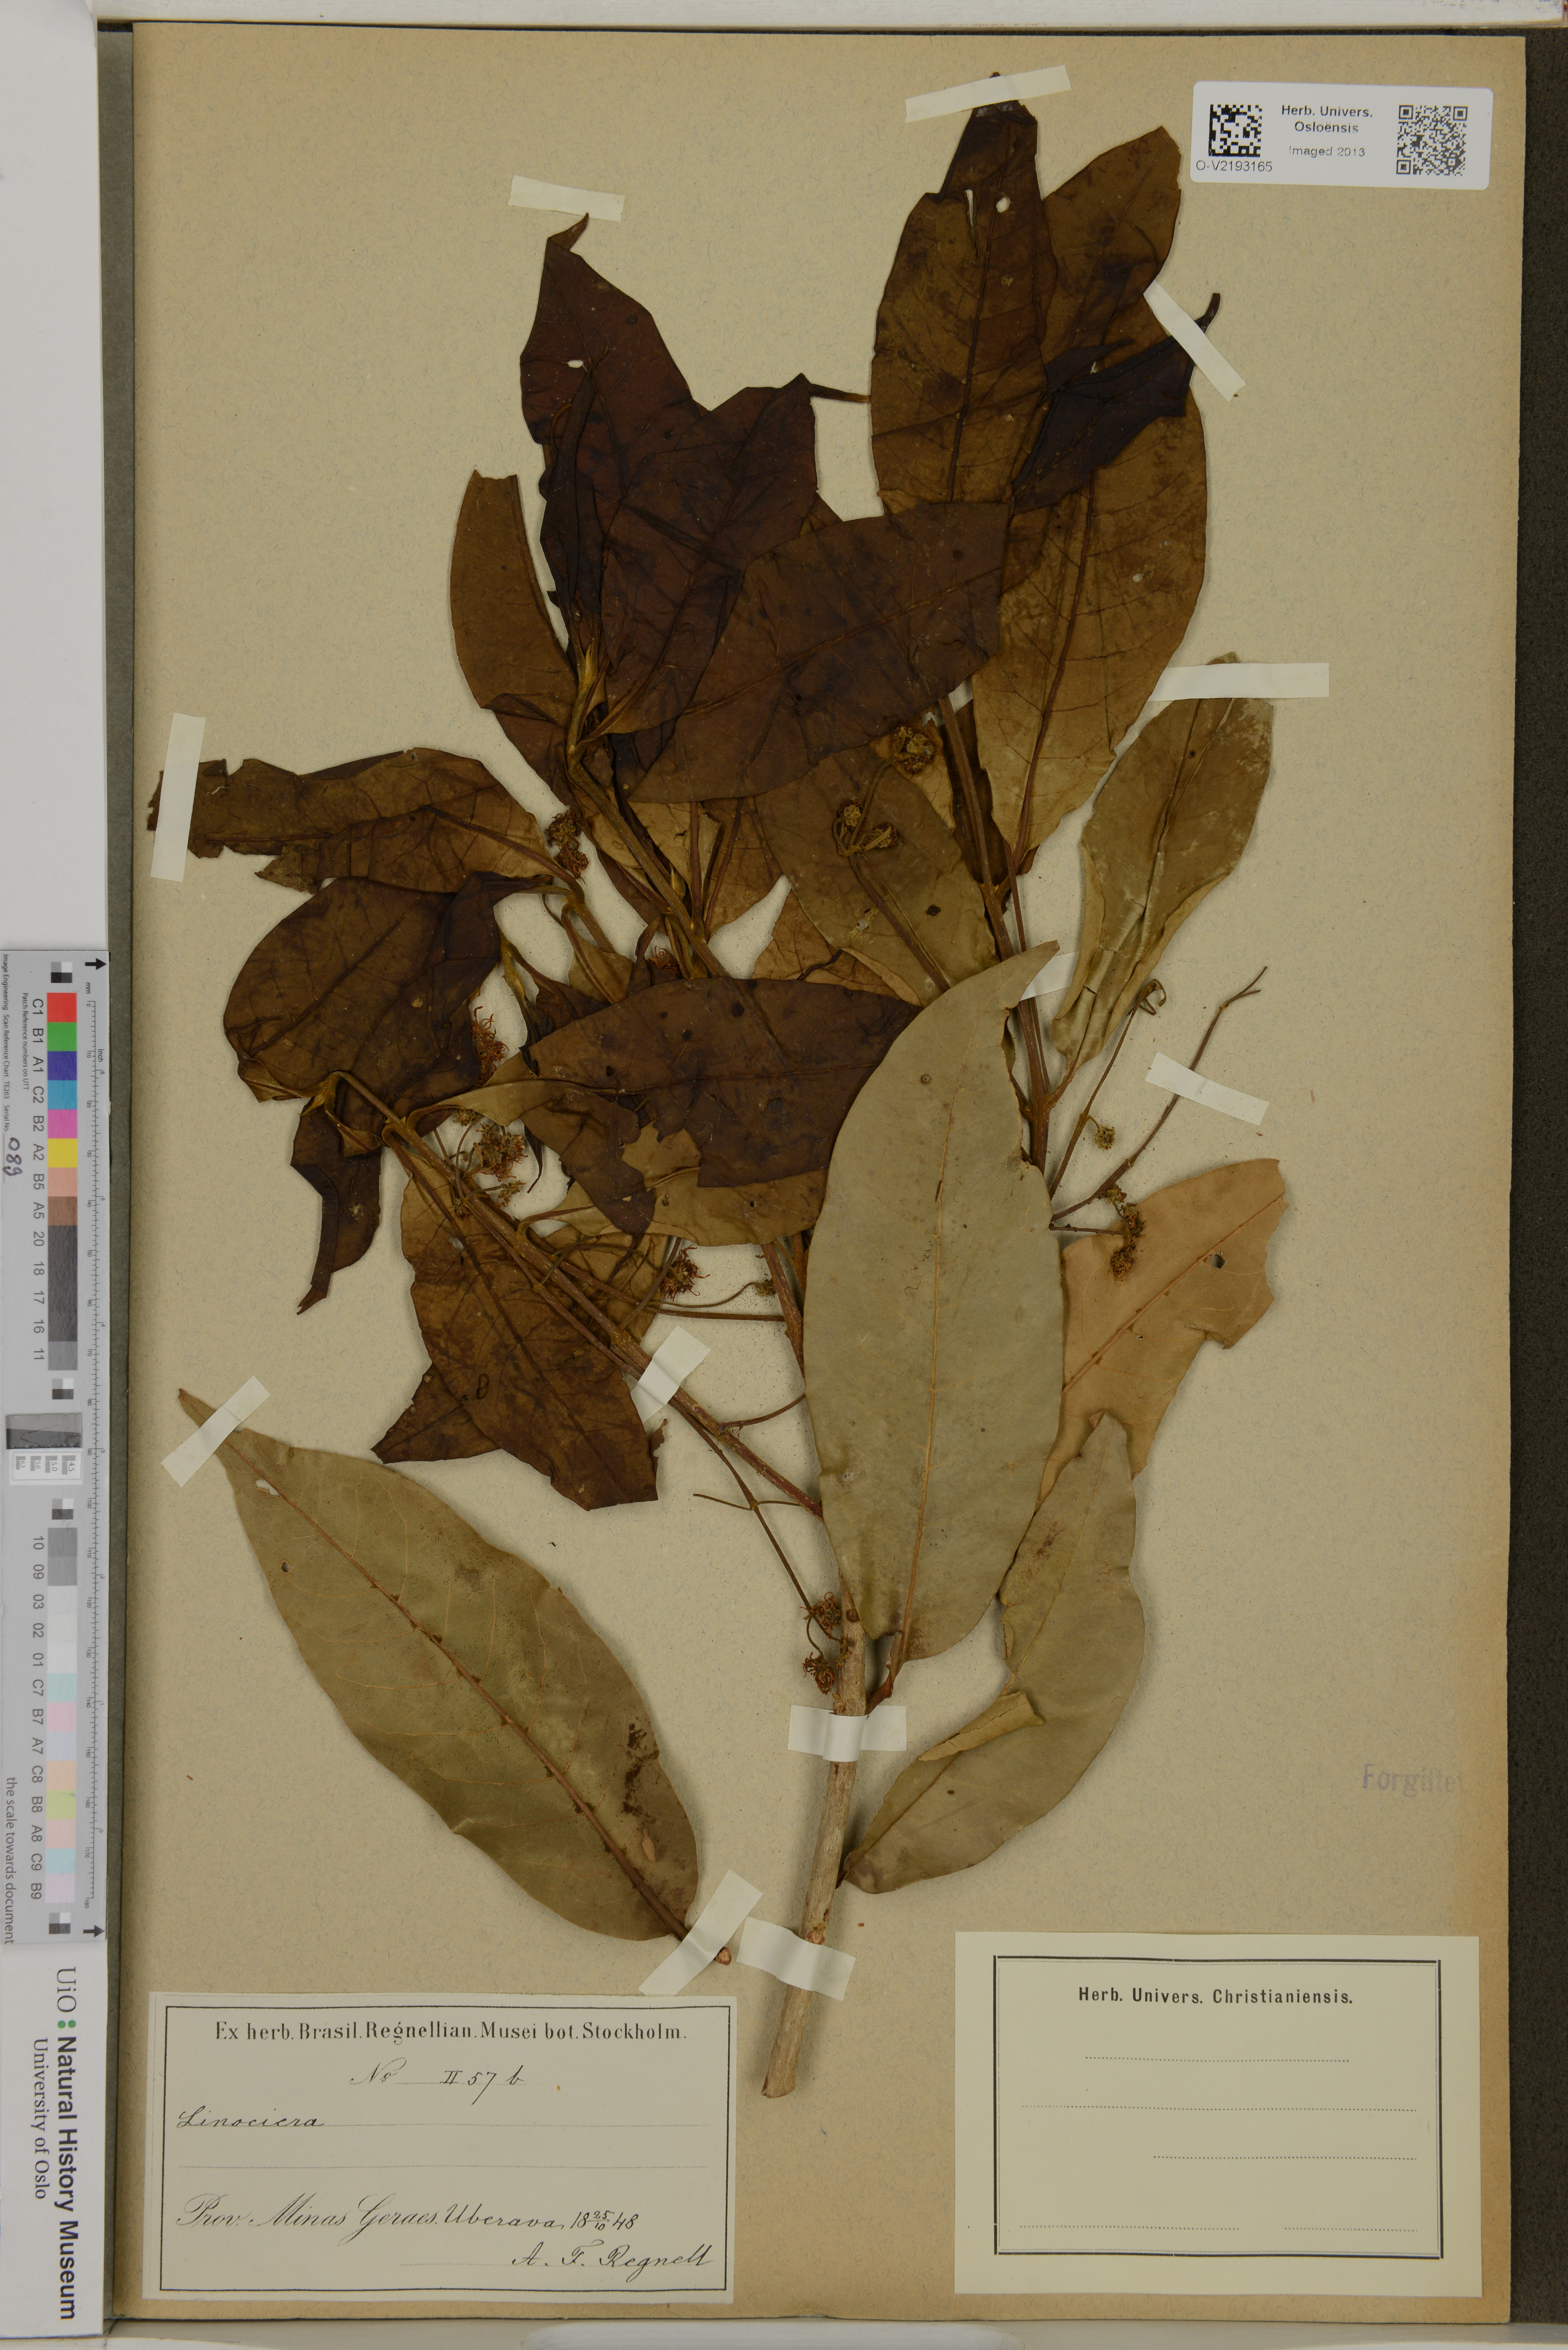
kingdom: Plantae
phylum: Tracheophyta
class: Magnoliopsida
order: Lamiales
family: Oleaceae
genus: Chionanthus
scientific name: Chionanthus
